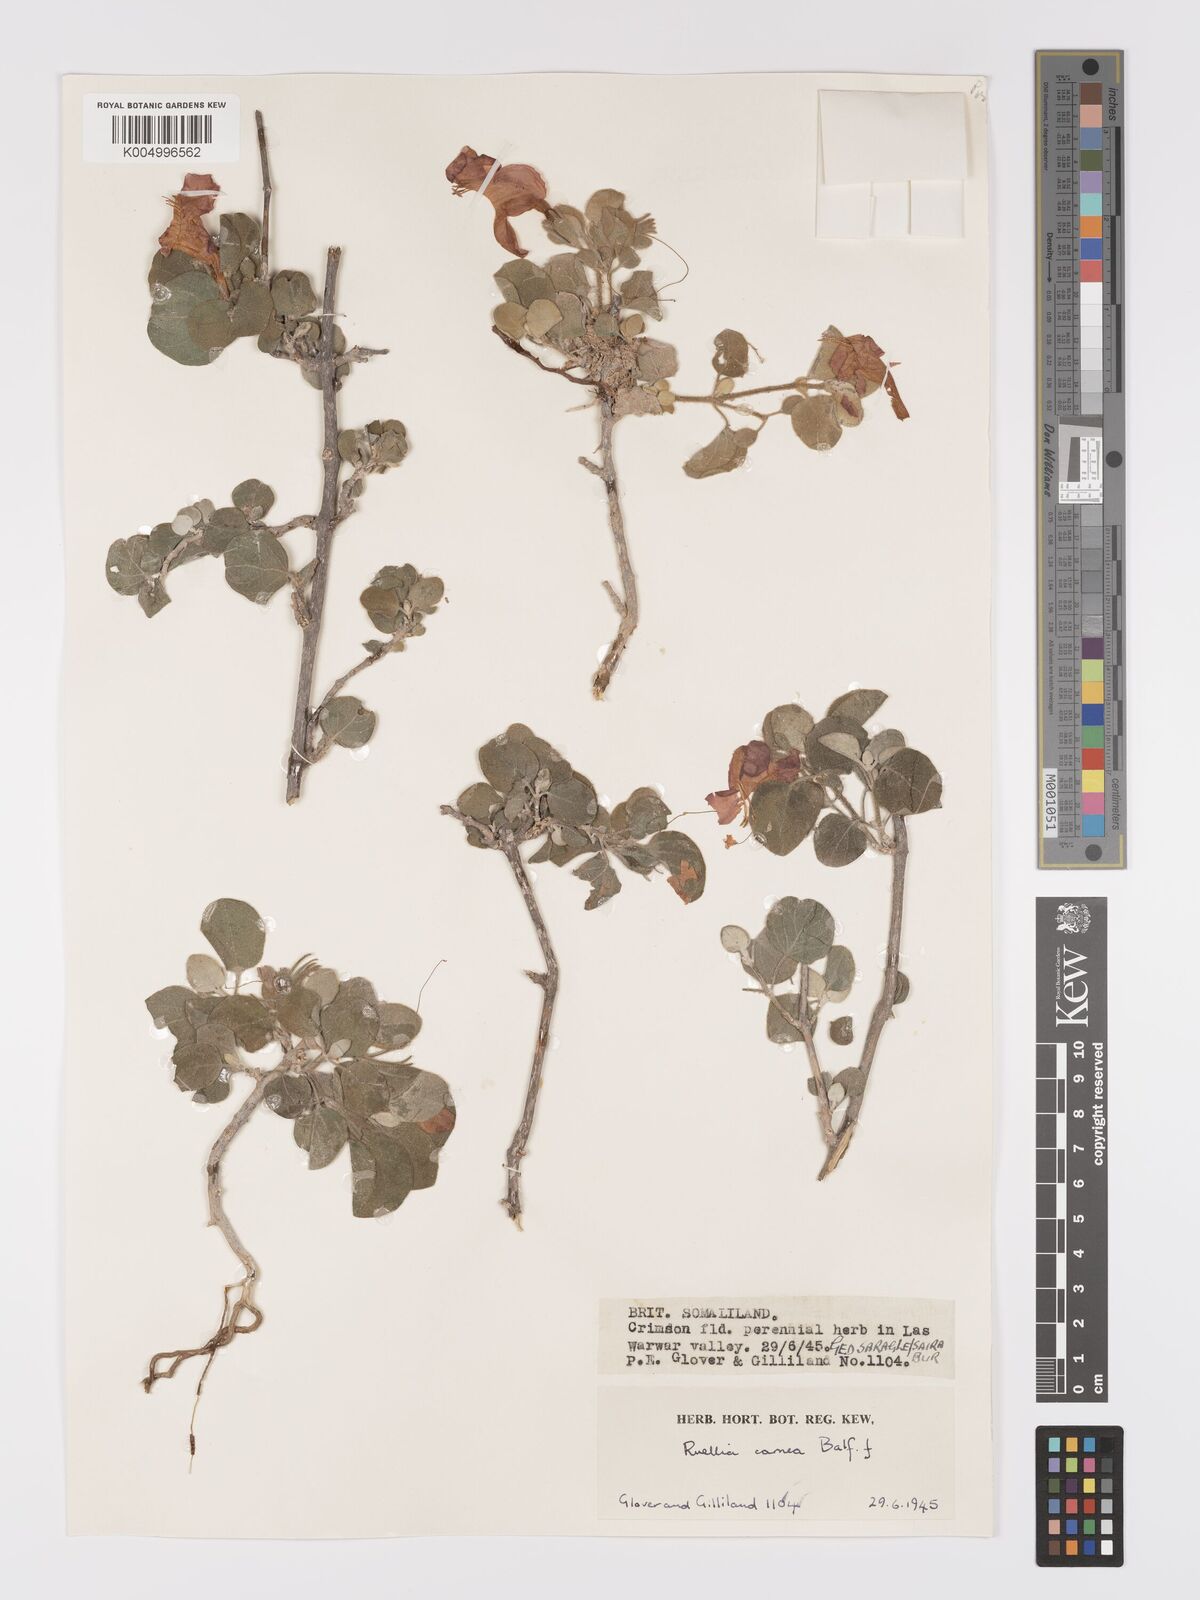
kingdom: Plantae
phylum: Tracheophyta
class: Magnoliopsida
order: Lamiales
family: Acanthaceae
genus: Ruellia
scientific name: Ruellia carnea
